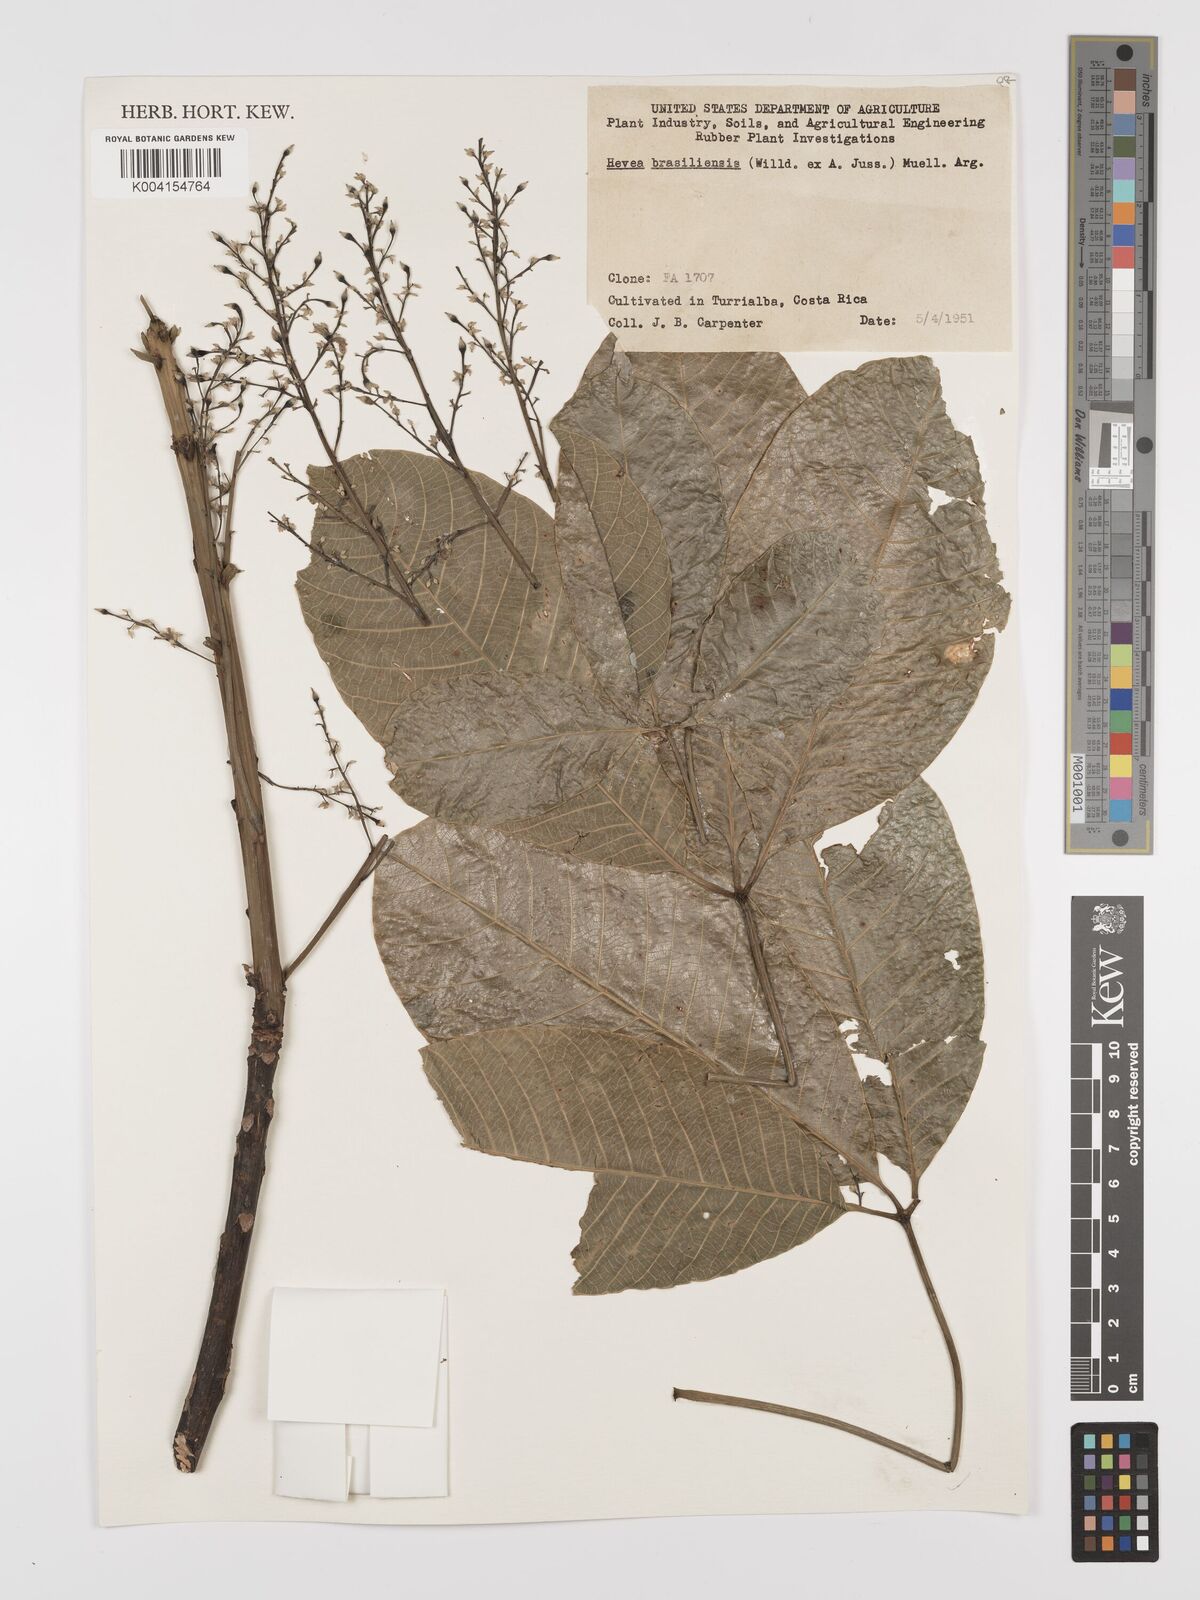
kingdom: Plantae
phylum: Tracheophyta
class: Magnoliopsida
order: Malpighiales
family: Euphorbiaceae
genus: Hevea
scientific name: Hevea brasiliensis
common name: Natural rubber
